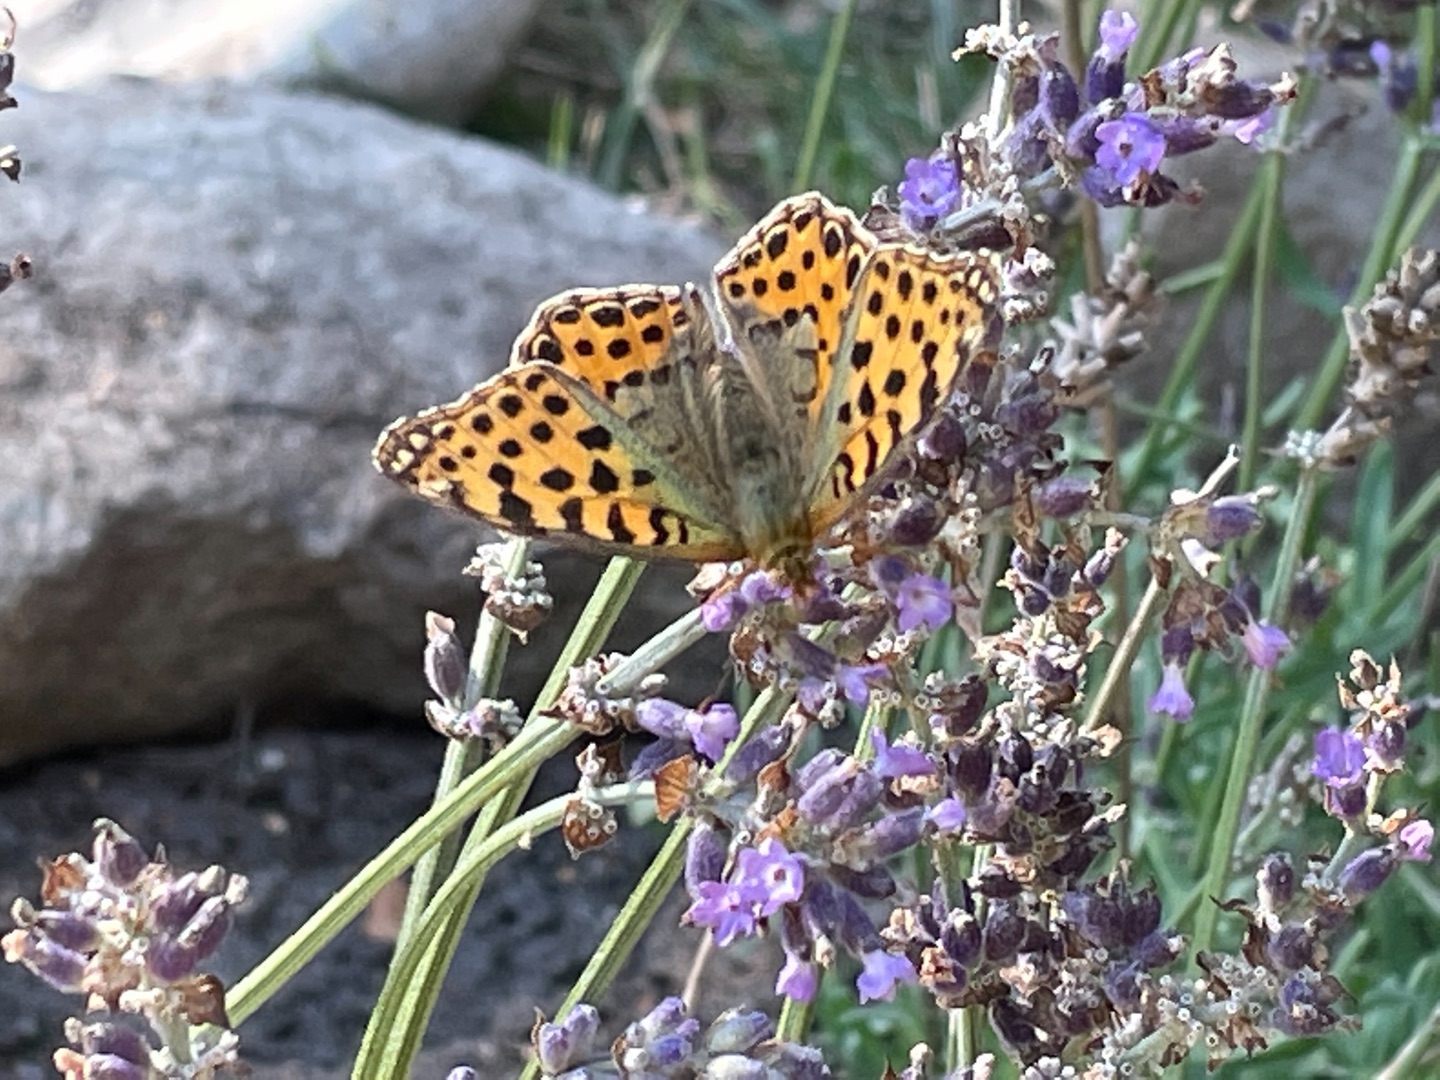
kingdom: Animalia
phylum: Arthropoda
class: Insecta
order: Lepidoptera
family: Nymphalidae
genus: Issoria
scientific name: Issoria lathonia
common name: Storplettet perlemorsommerfugl
